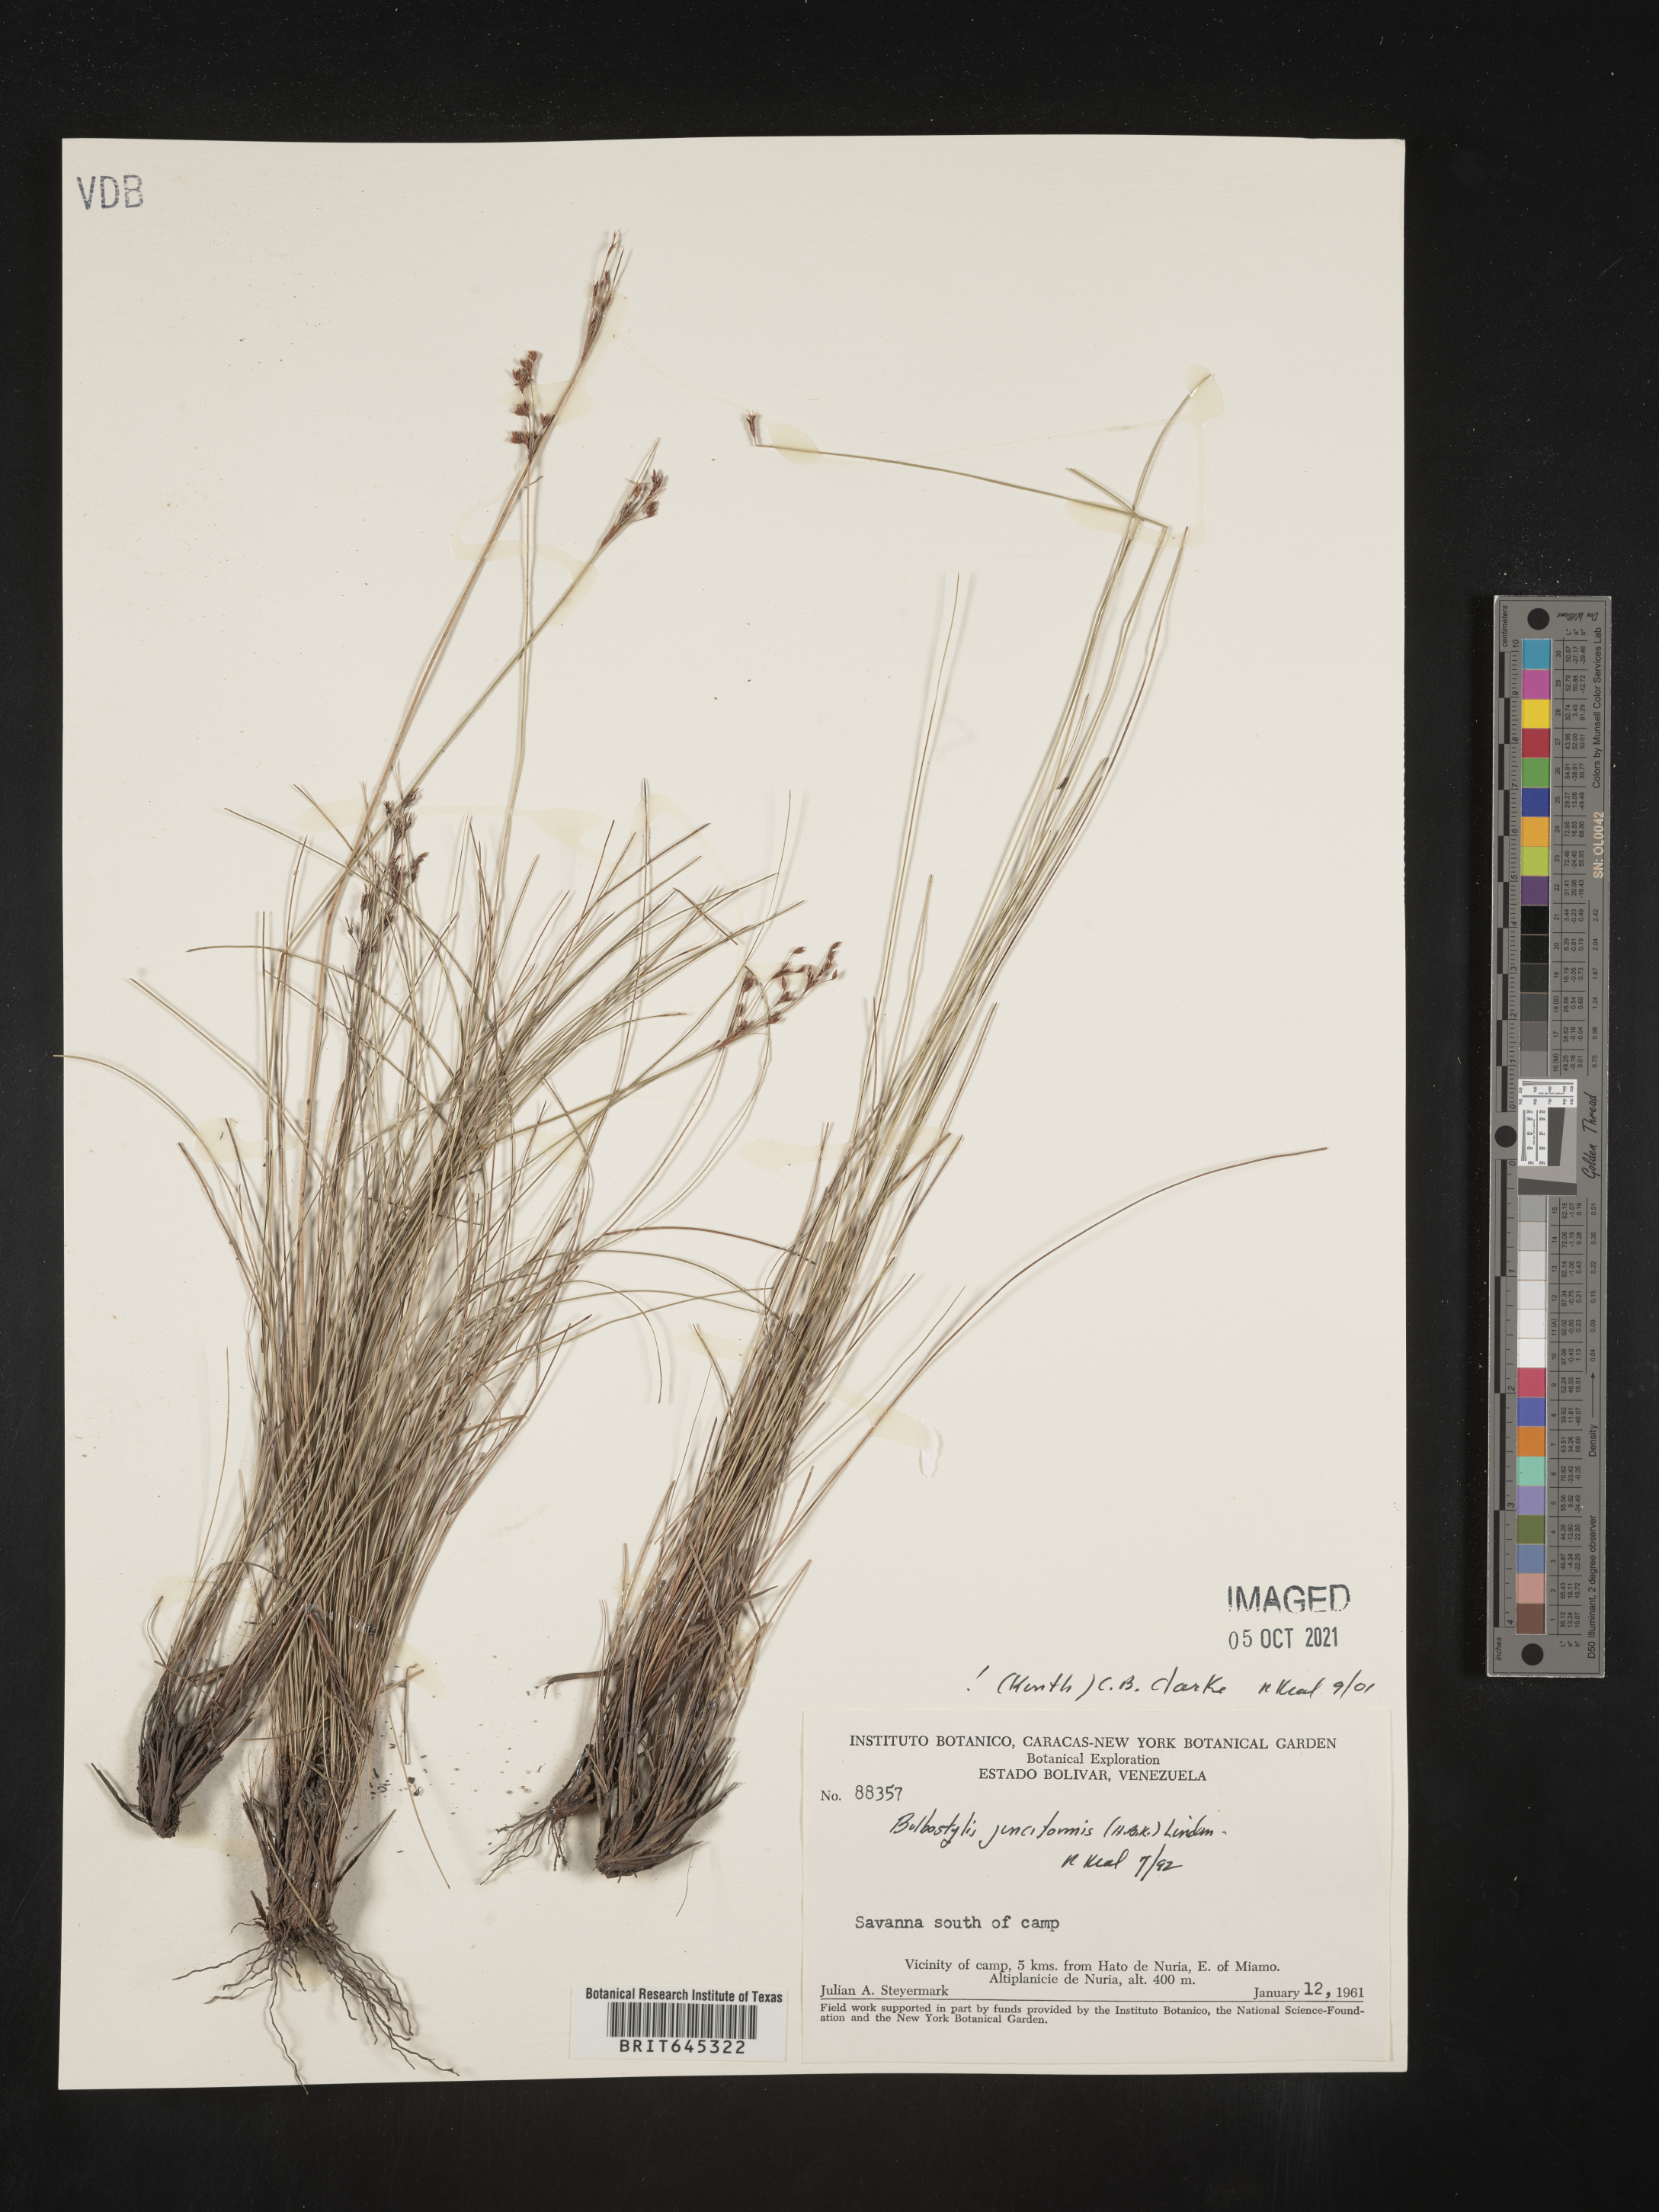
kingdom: Plantae
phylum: Tracheophyta
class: Liliopsida
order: Poales
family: Cyperaceae
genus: Bulbostylis
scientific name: Bulbostylis junciformis
